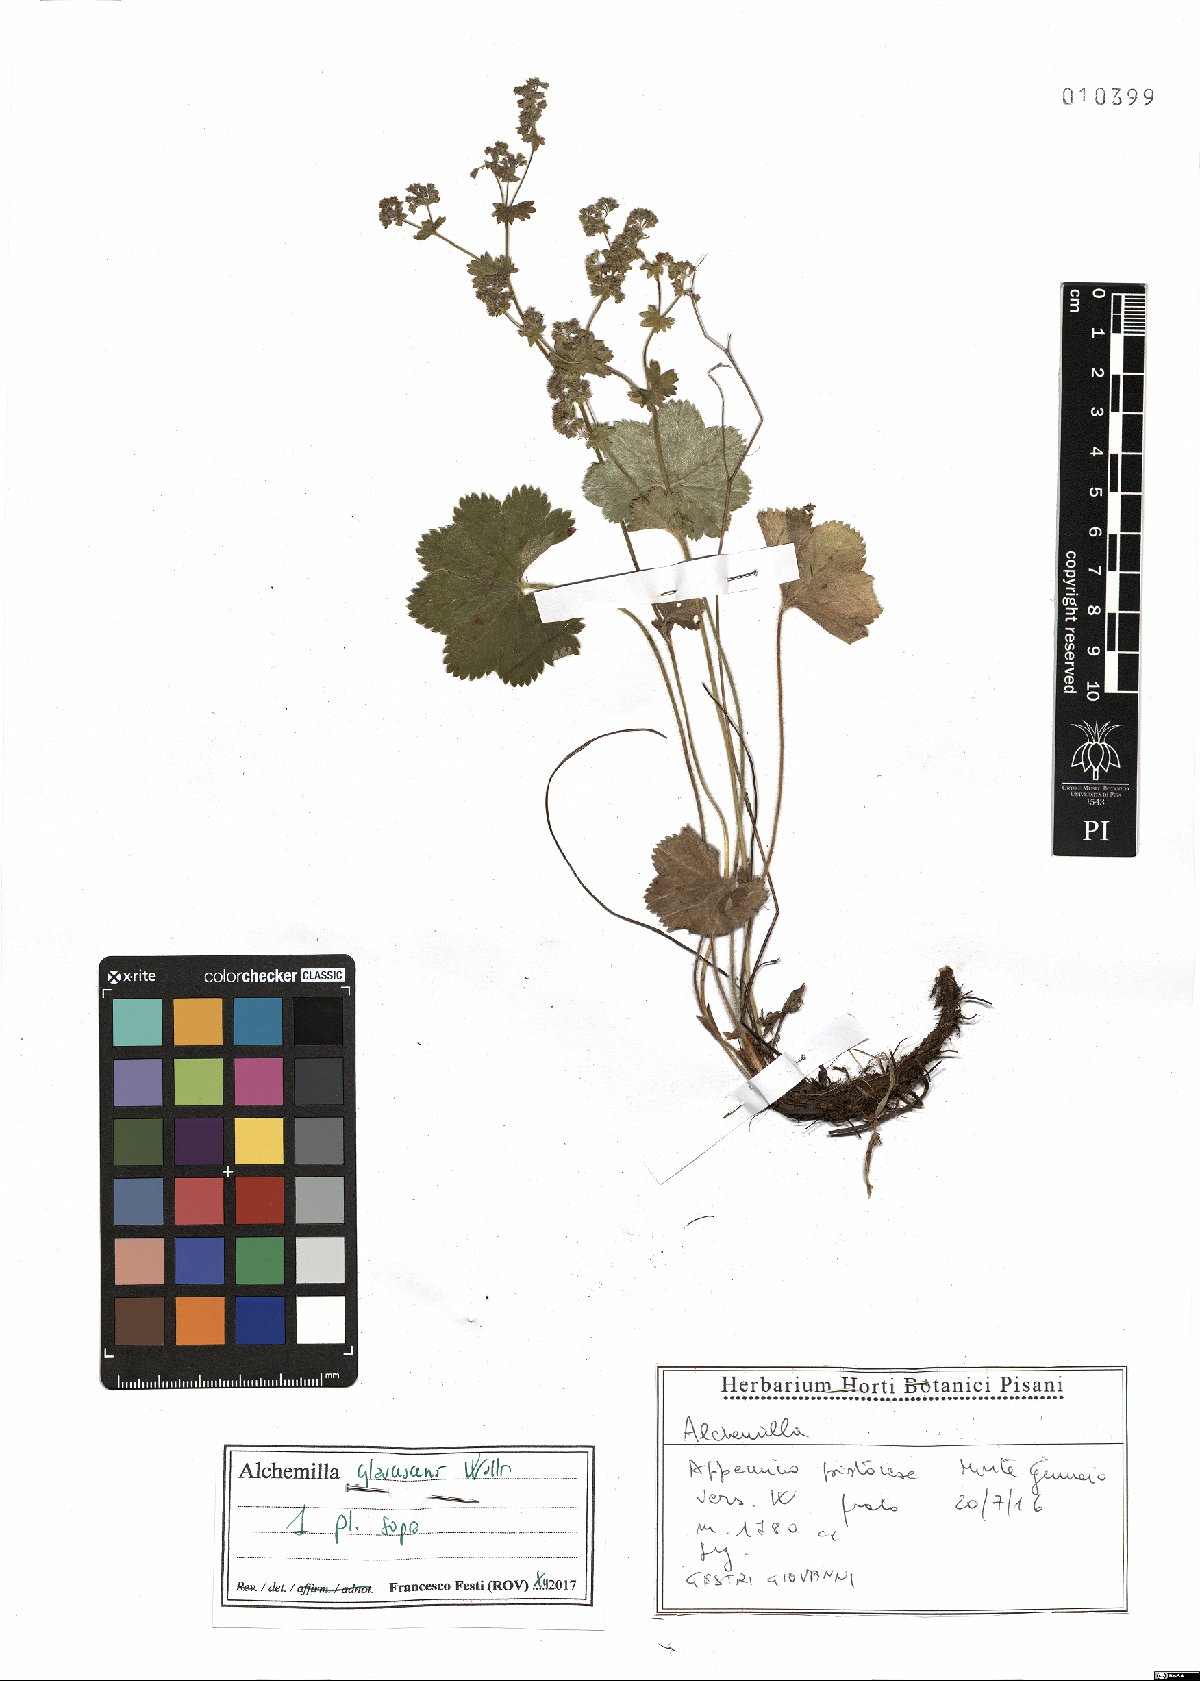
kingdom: Plantae
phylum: Tracheophyta
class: Magnoliopsida
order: Rosales
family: Rosaceae
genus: Alchemilla
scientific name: Alchemilla glaucescens
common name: Silky lady's mantle
